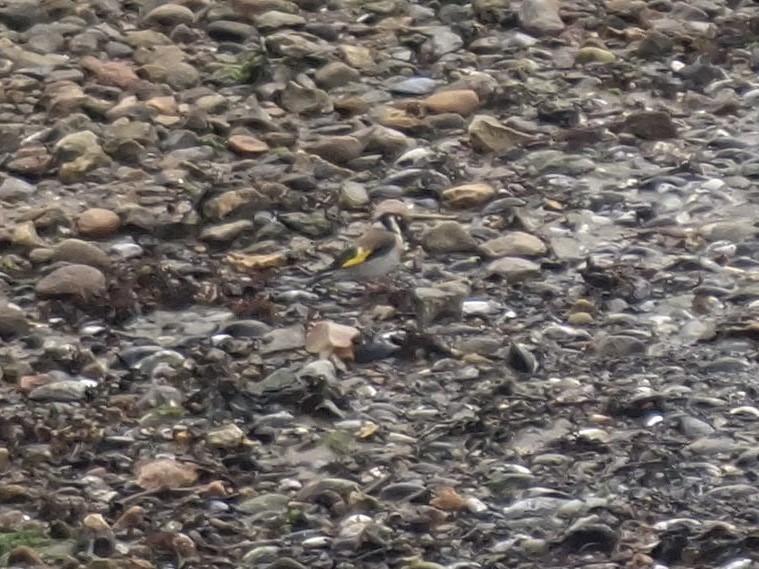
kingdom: Animalia
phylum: Chordata
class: Aves
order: Passeriformes
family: Fringillidae
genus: Carduelis
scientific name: Carduelis carduelis
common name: Stillits
